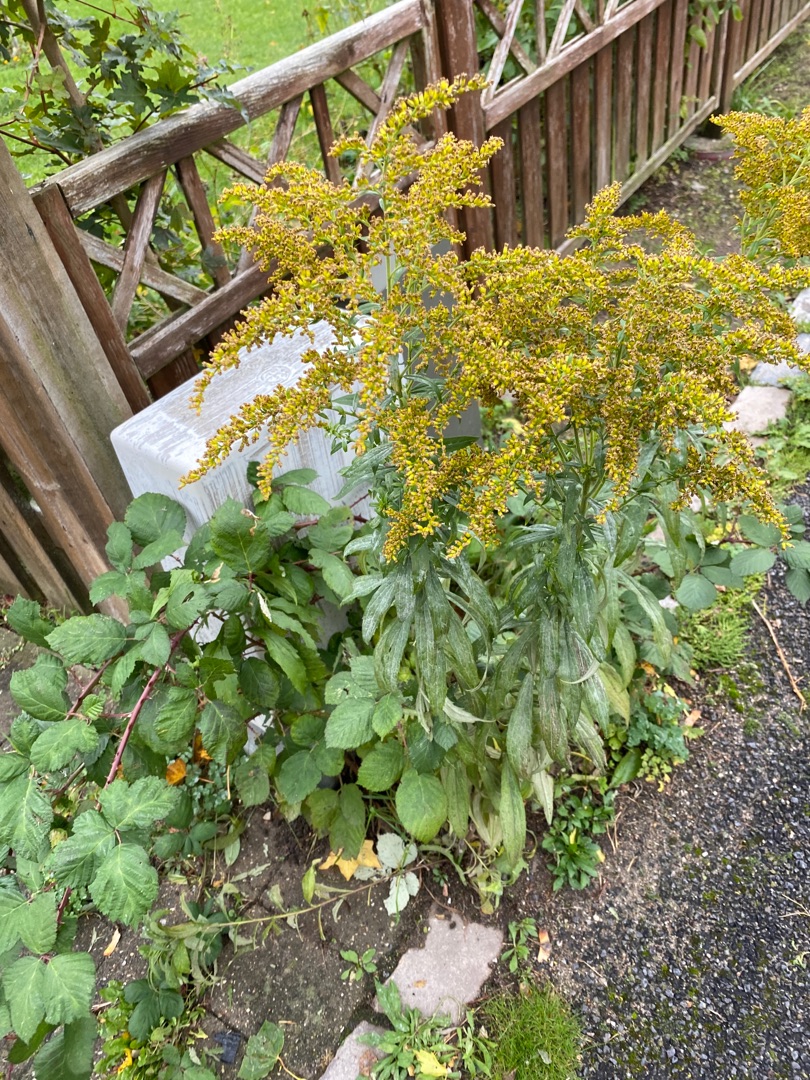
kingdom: Plantae
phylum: Tracheophyta
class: Magnoliopsida
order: Asterales
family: Asteraceae
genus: Solidago
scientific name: Solidago canadensis
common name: Kanadisk gyldenris
